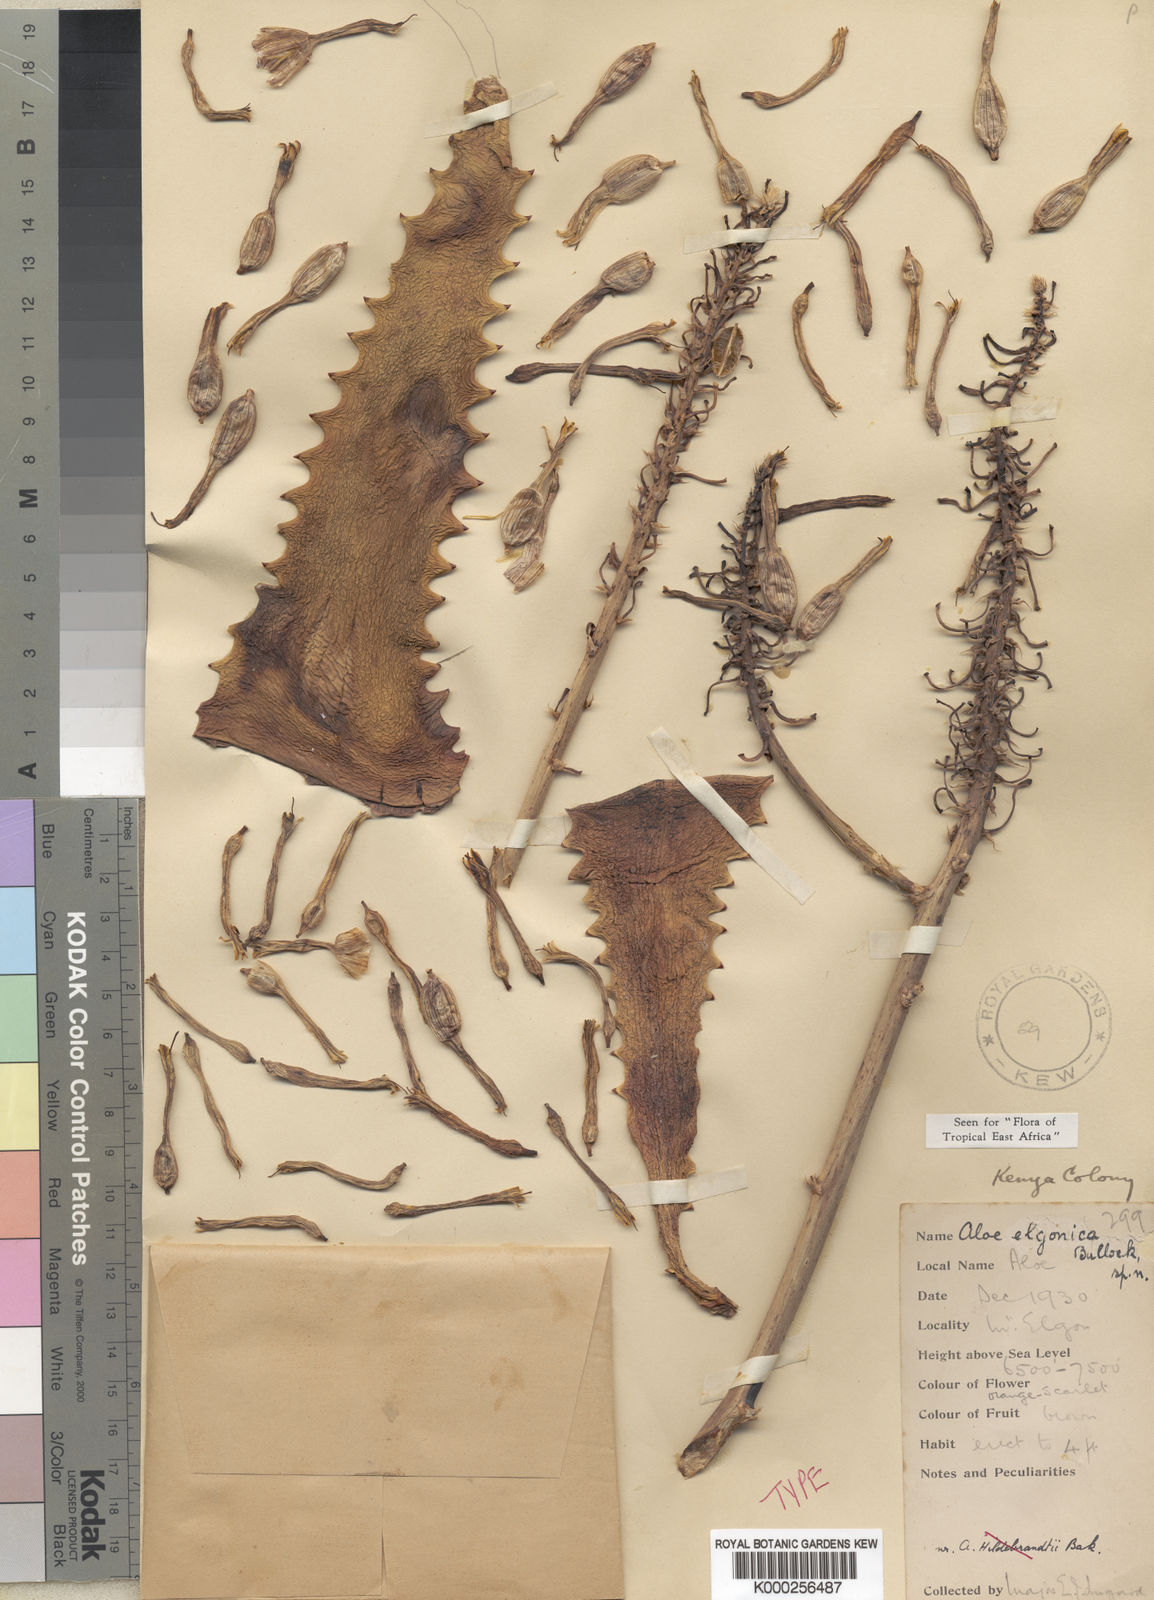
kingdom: Plantae
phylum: Tracheophyta
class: Liliopsida
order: Asparagales
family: Asphodelaceae
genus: Aloe
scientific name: Aloe elgonica
